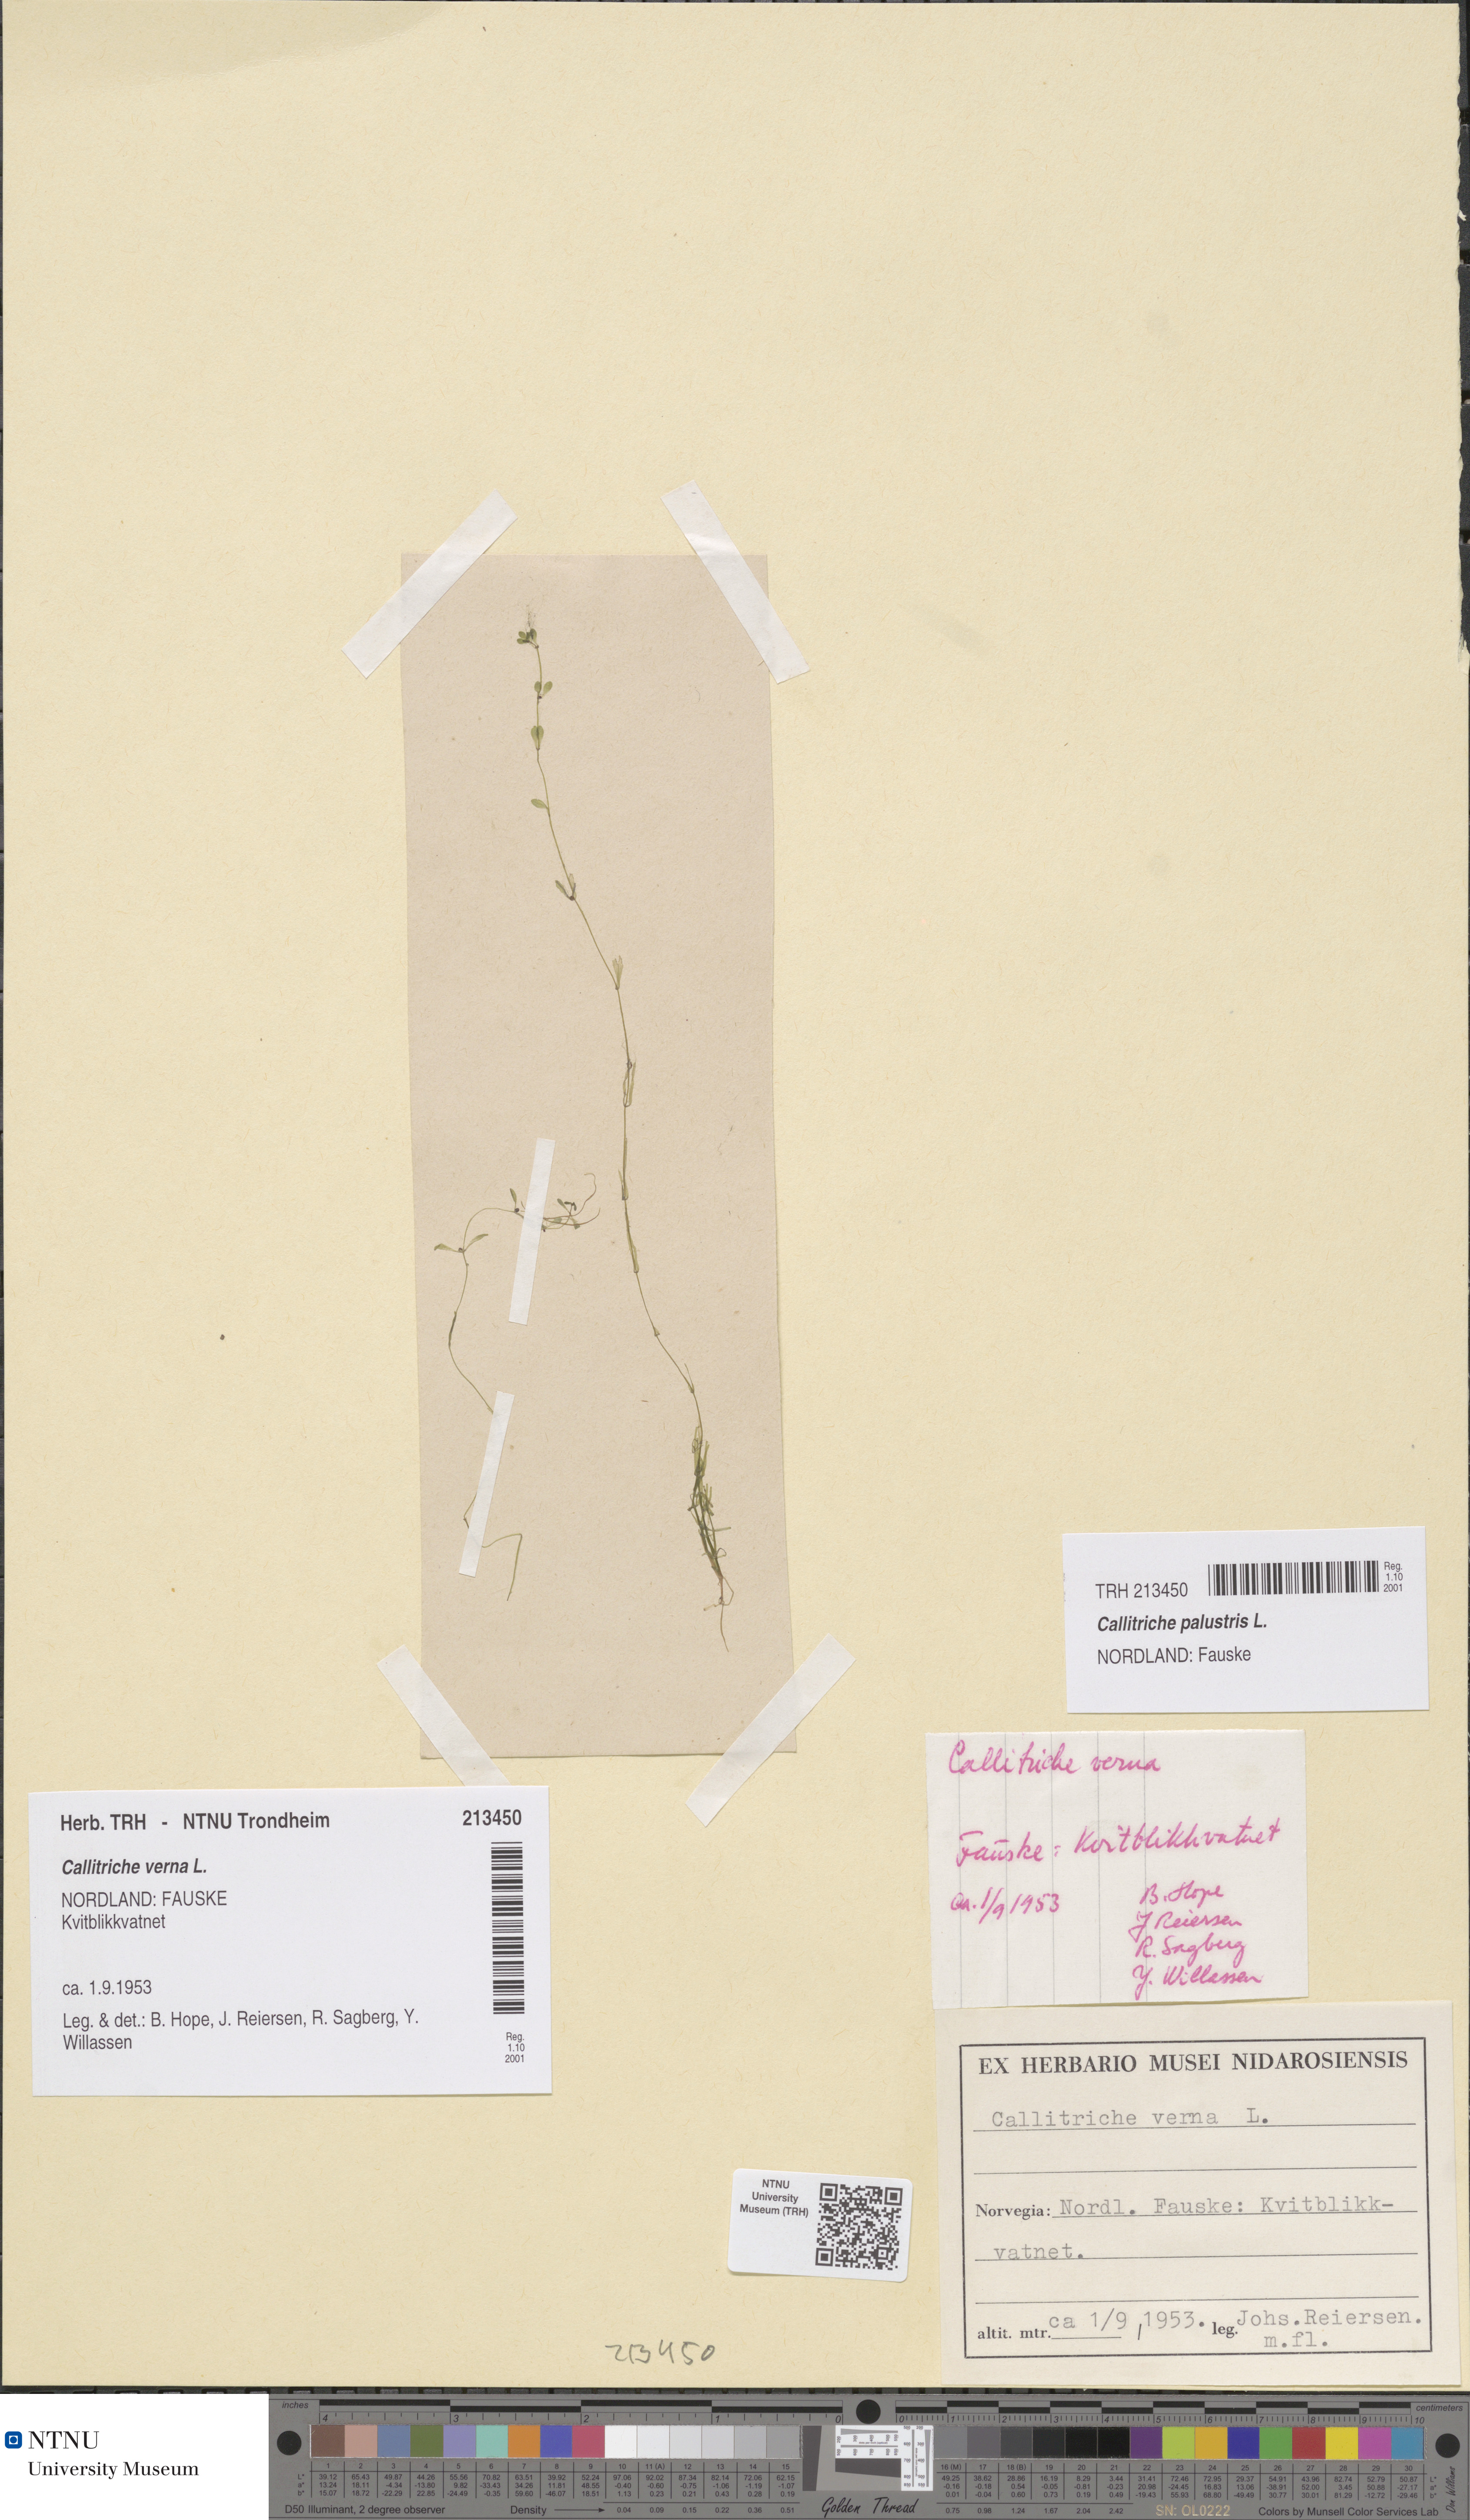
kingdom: Plantae
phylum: Tracheophyta
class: Magnoliopsida
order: Lamiales
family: Plantaginaceae
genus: Callitriche
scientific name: Callitriche palustris
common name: Spring water-starwort
